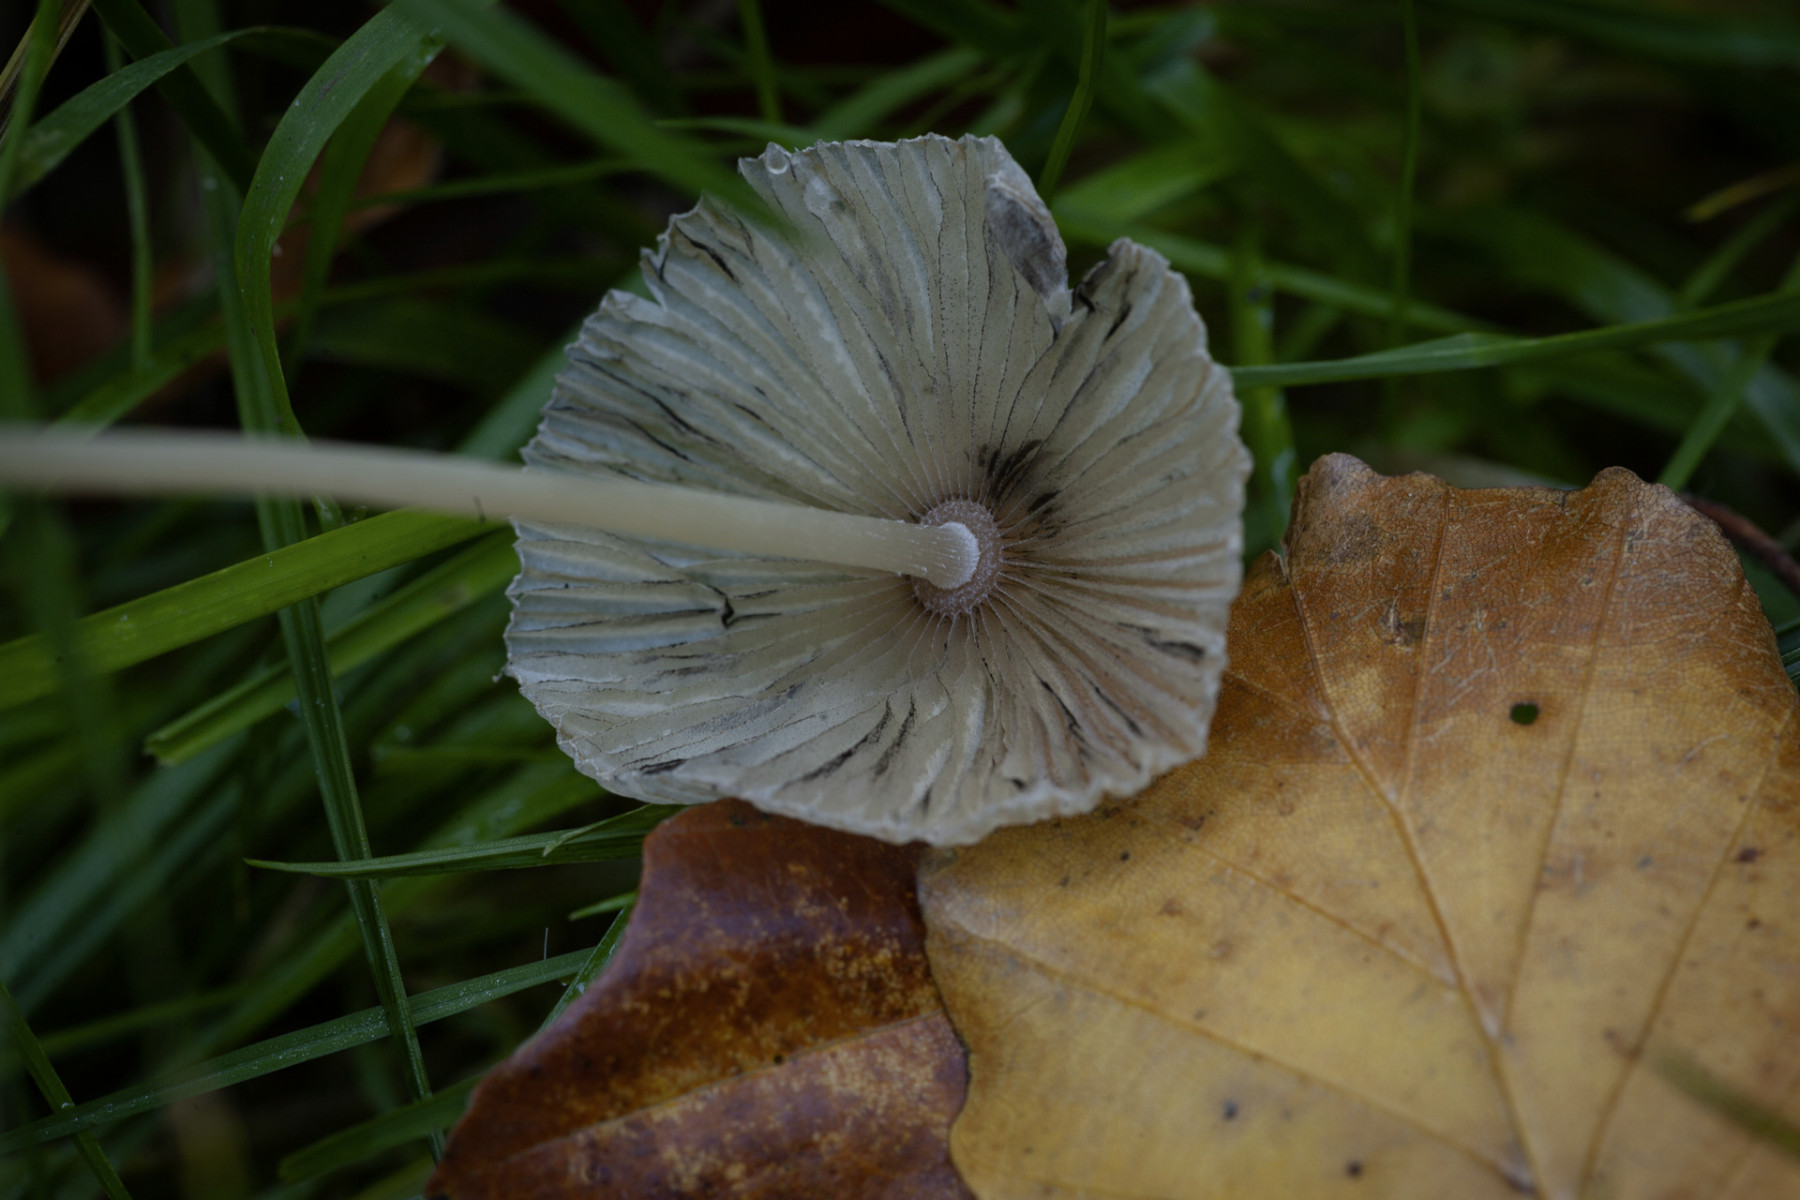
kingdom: Fungi
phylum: Basidiomycota
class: Agaricomycetes
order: Agaricales
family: Psathyrellaceae
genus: Parasola
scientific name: Parasola
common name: hjulhat
